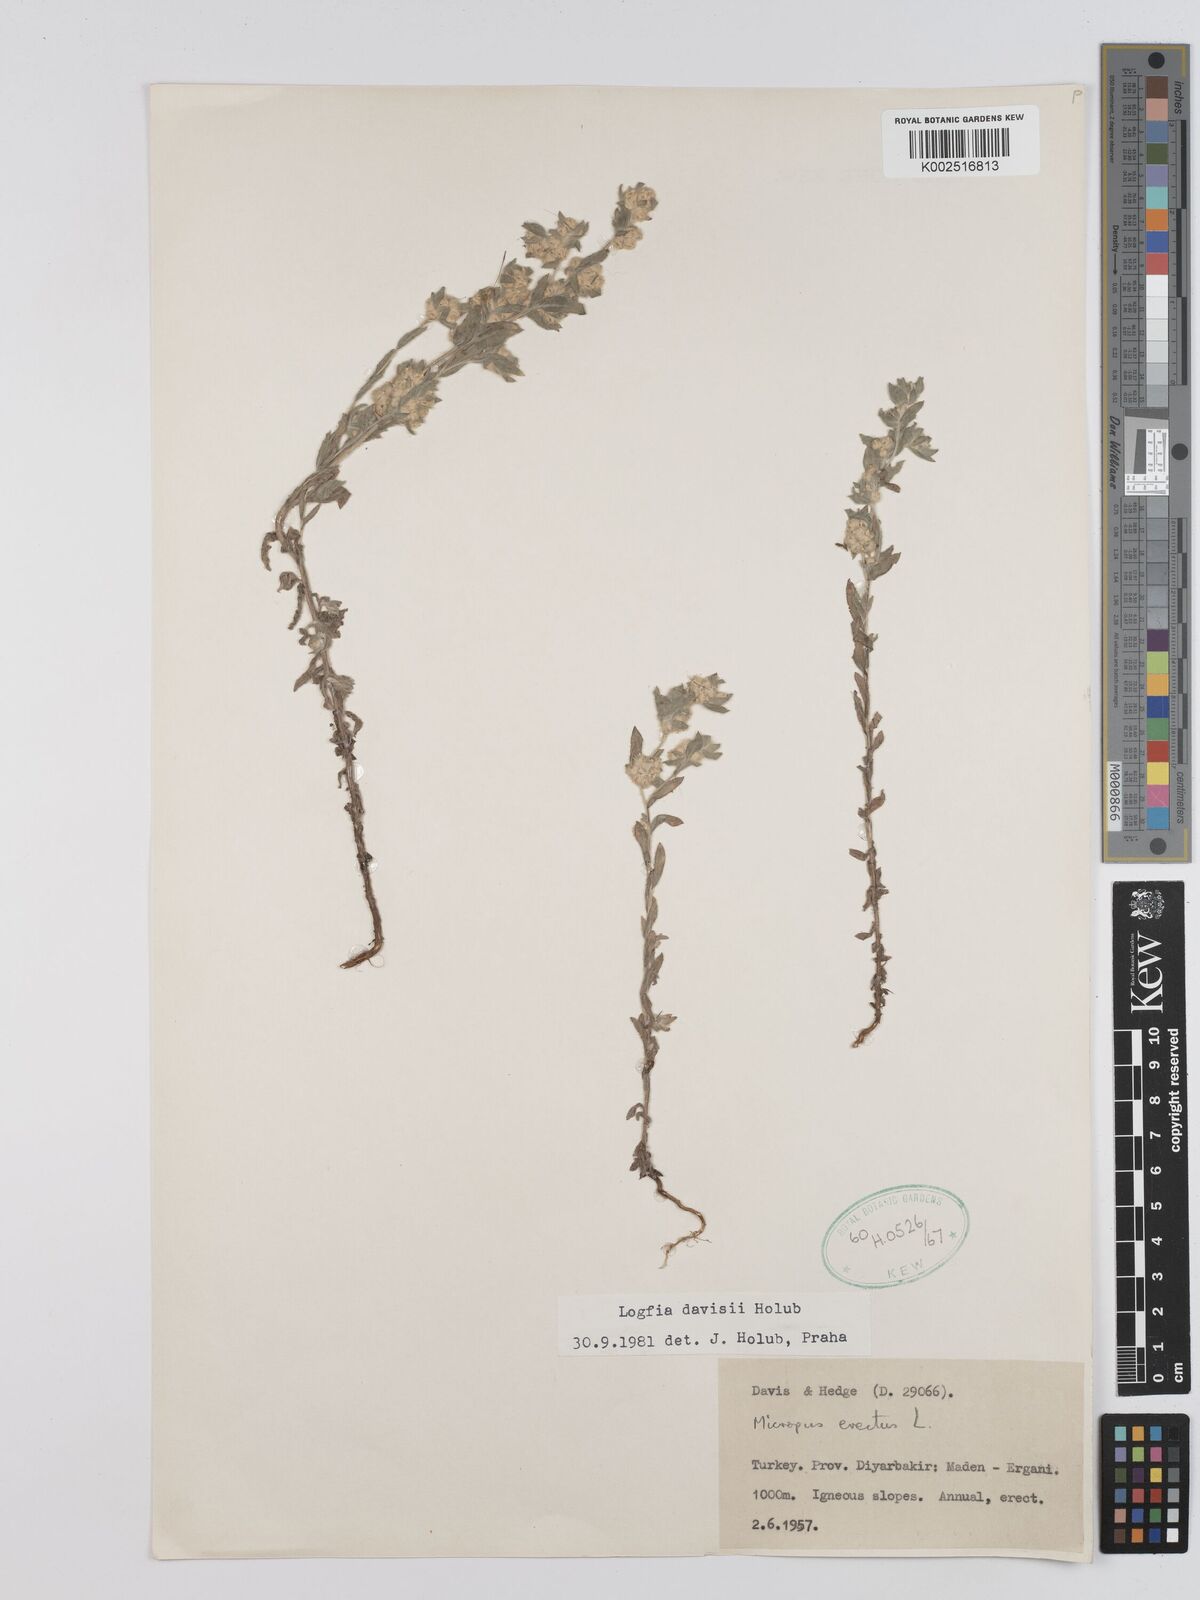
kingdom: Plantae
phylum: Tracheophyta
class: Magnoliopsida
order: Asterales
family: Asteraceae
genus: Filago
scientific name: Filago arvensis
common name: Field cudweed
